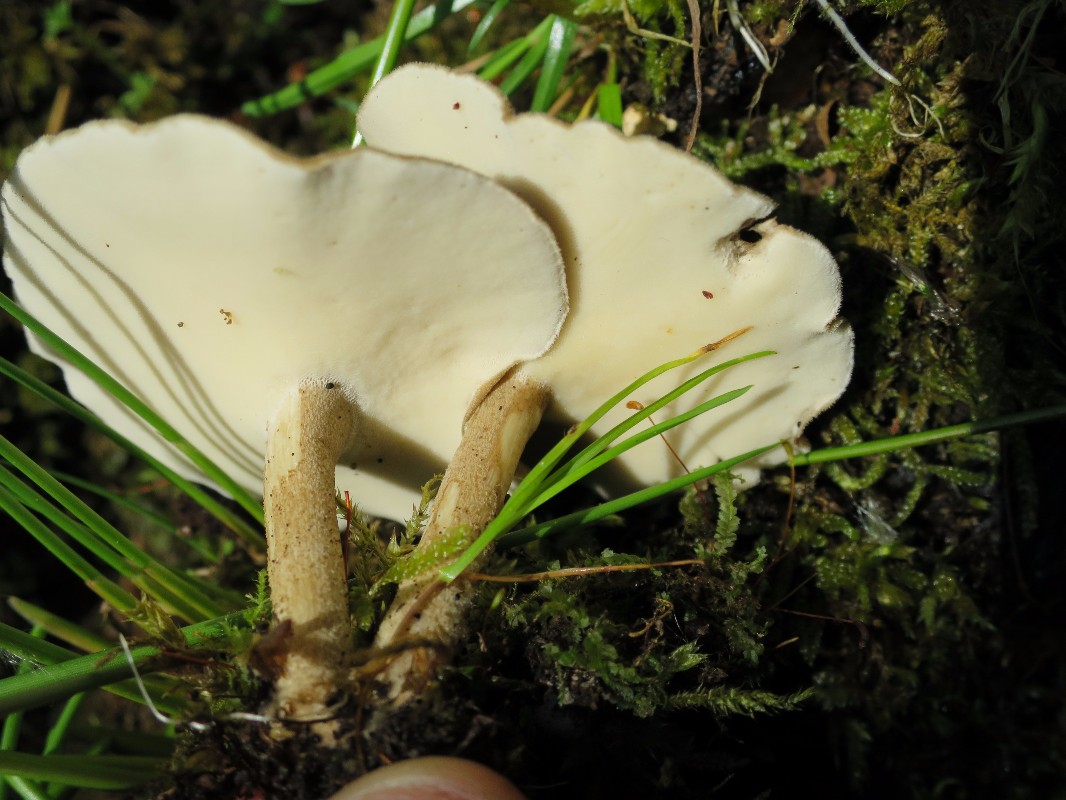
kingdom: Fungi
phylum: Basidiomycota
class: Agaricomycetes
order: Polyporales
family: Polyporaceae
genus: Lentinus
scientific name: Lentinus substrictus
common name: forårs-stilkporesvamp
